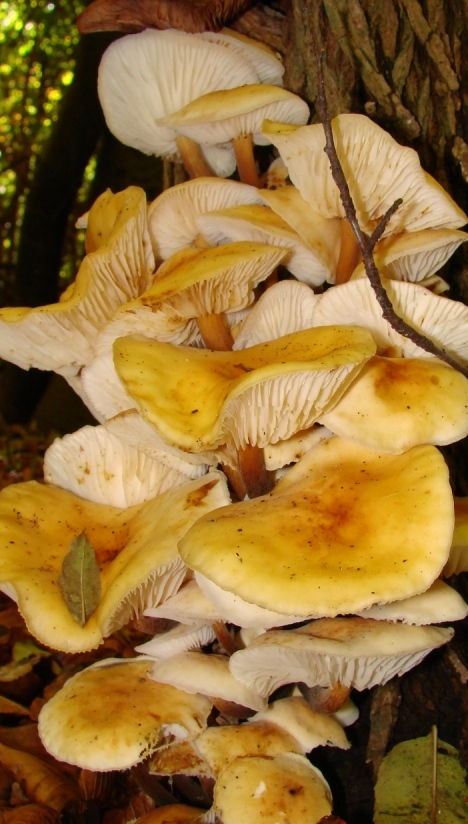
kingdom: Fungi
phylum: Basidiomycota
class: Agaricomycetes
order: Agaricales
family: Physalacriaceae
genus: Flammulina
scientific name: Flammulina velutipes
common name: gul fløjlsfod
